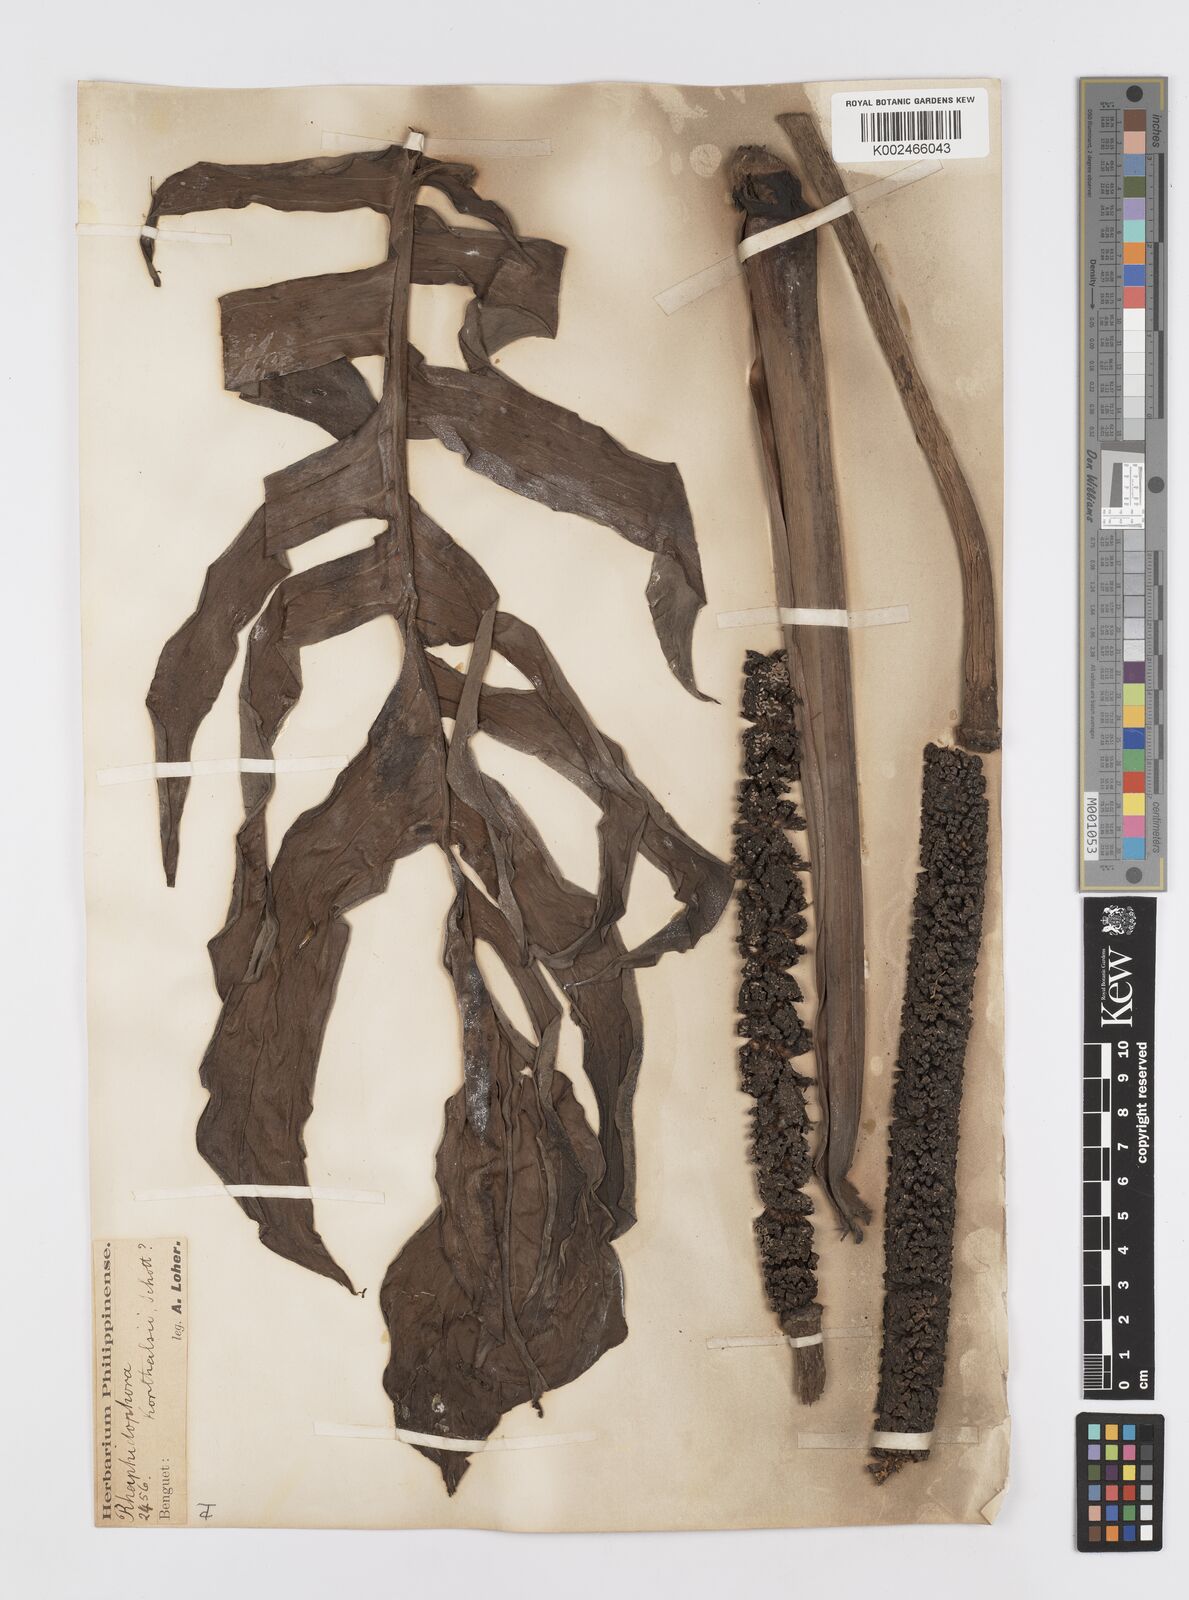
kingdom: Plantae
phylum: Tracheophyta
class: Liliopsida
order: Alismatales
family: Araceae
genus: Rhaphidophora
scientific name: Rhaphidophora korthalsii
